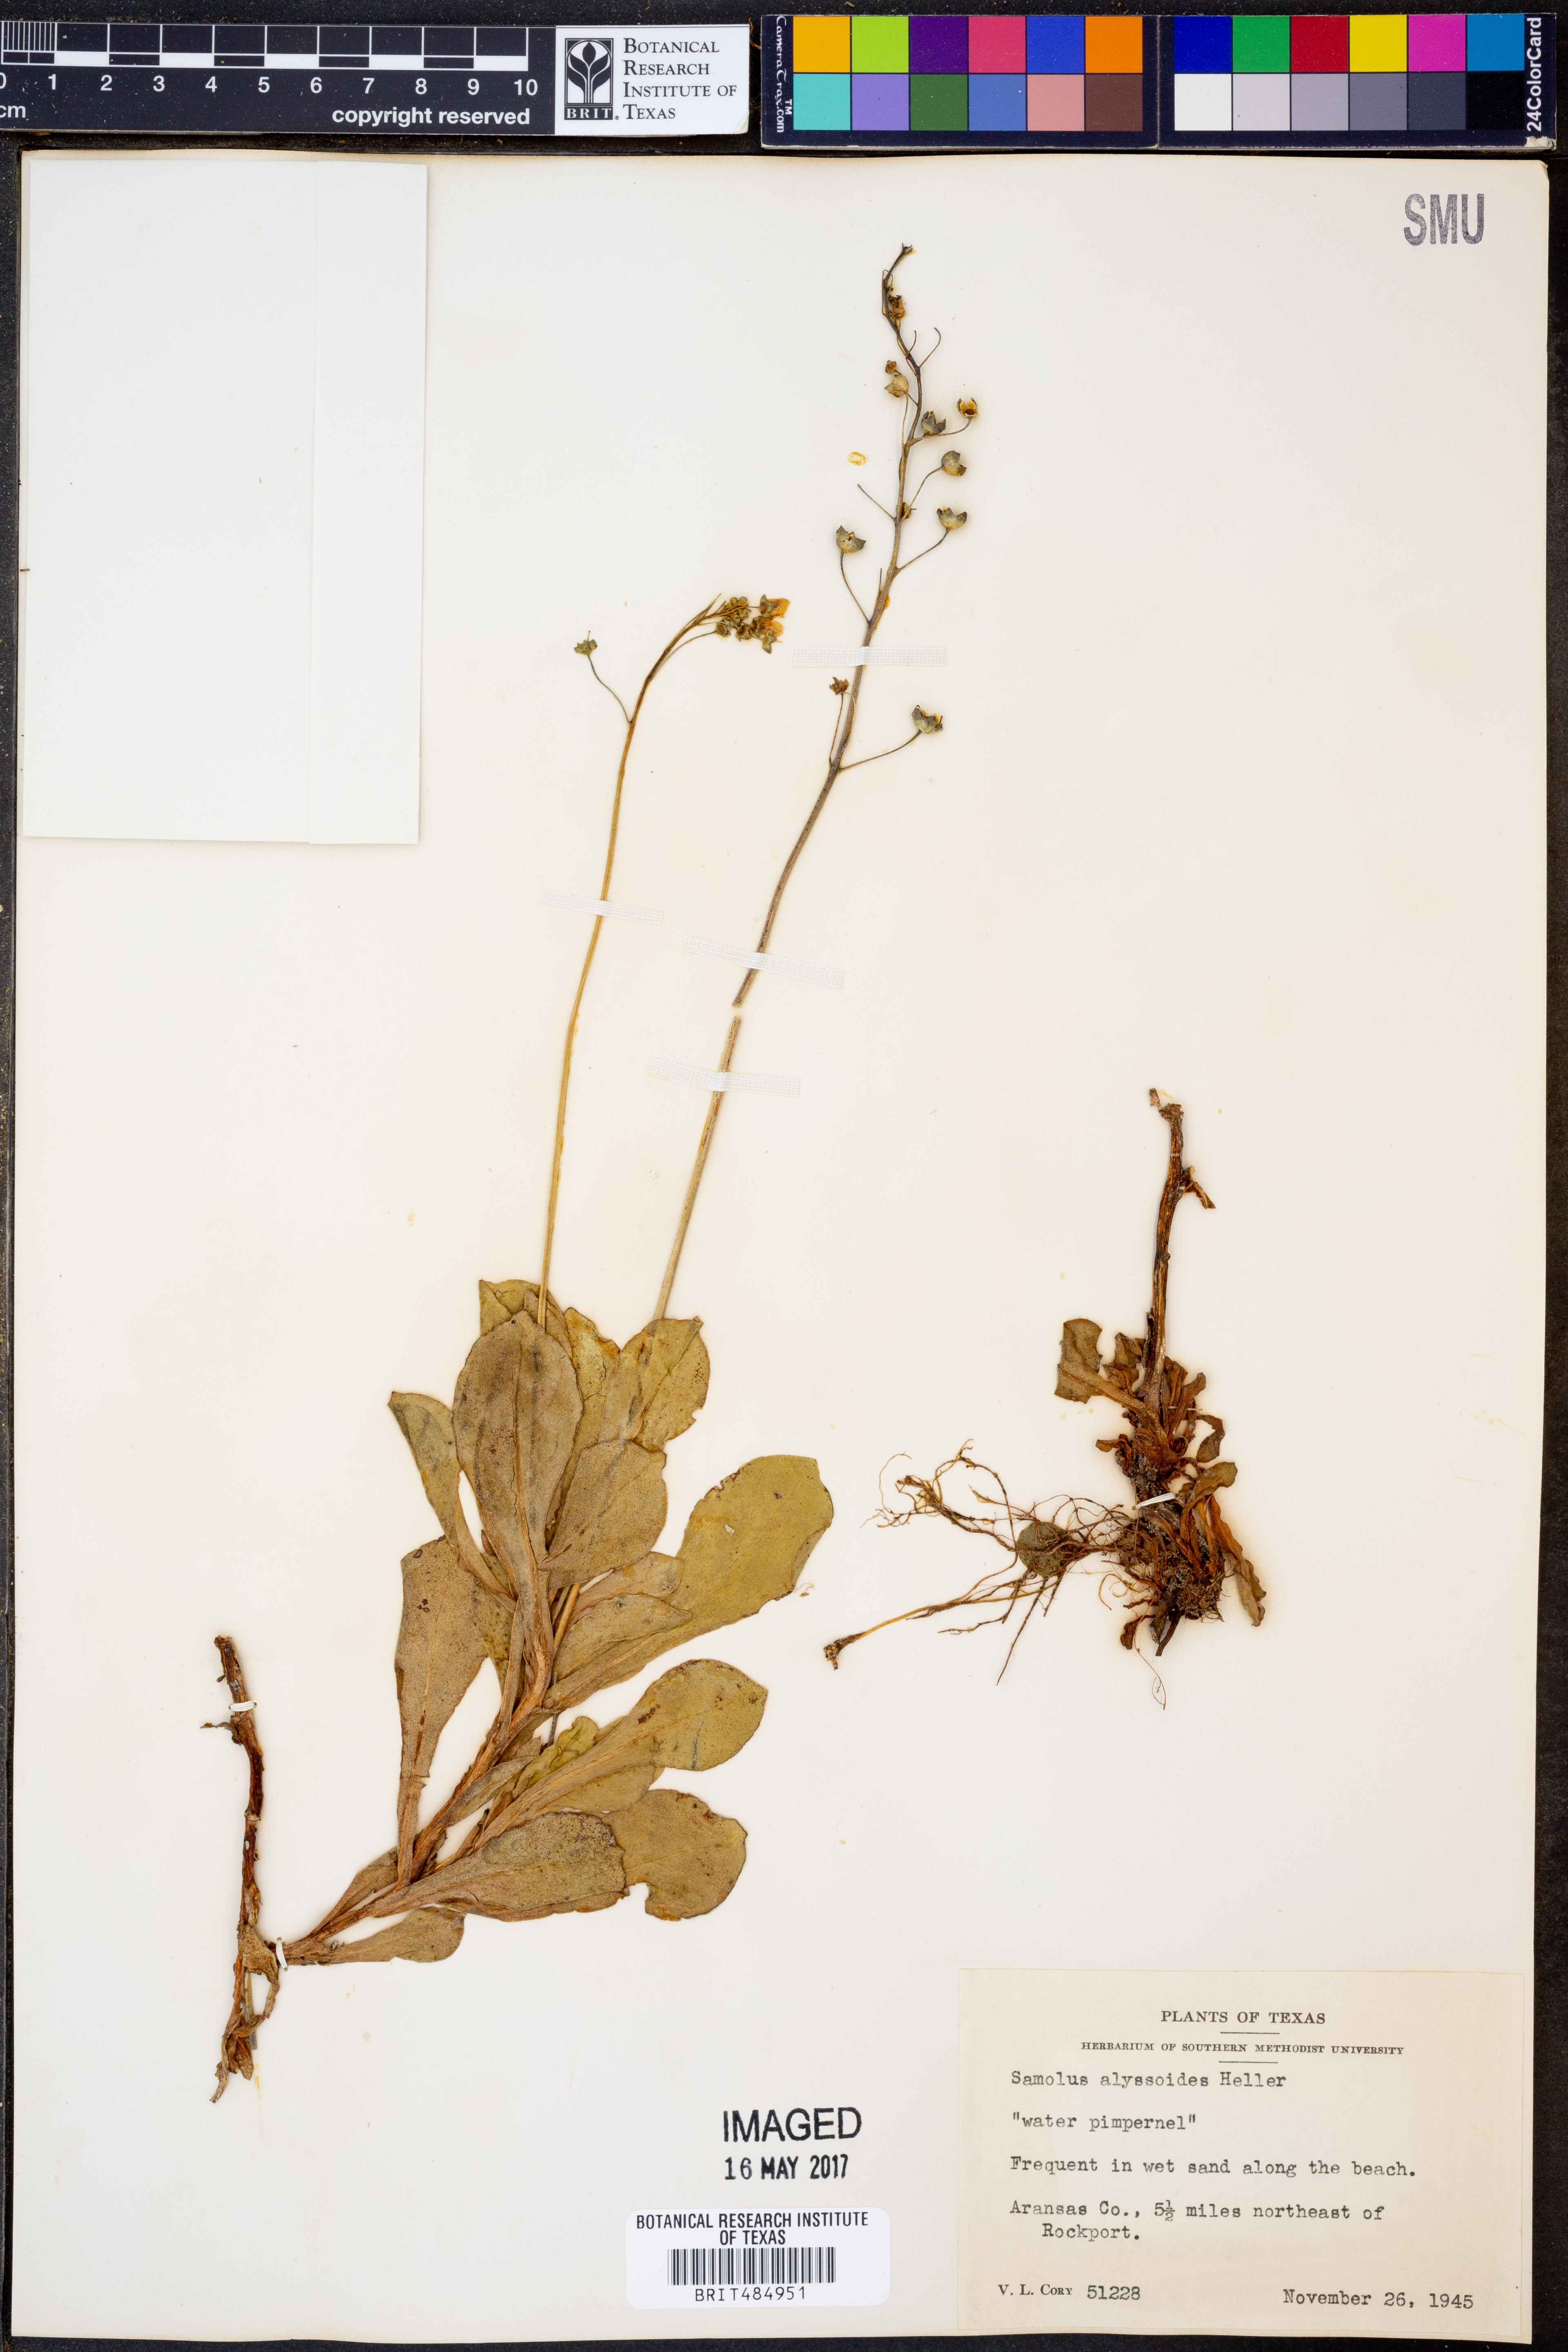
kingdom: Plantae
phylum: Tracheophyta
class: Magnoliopsida
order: Ericales
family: Primulaceae
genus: Samolus
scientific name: Samolus ebracteatus
